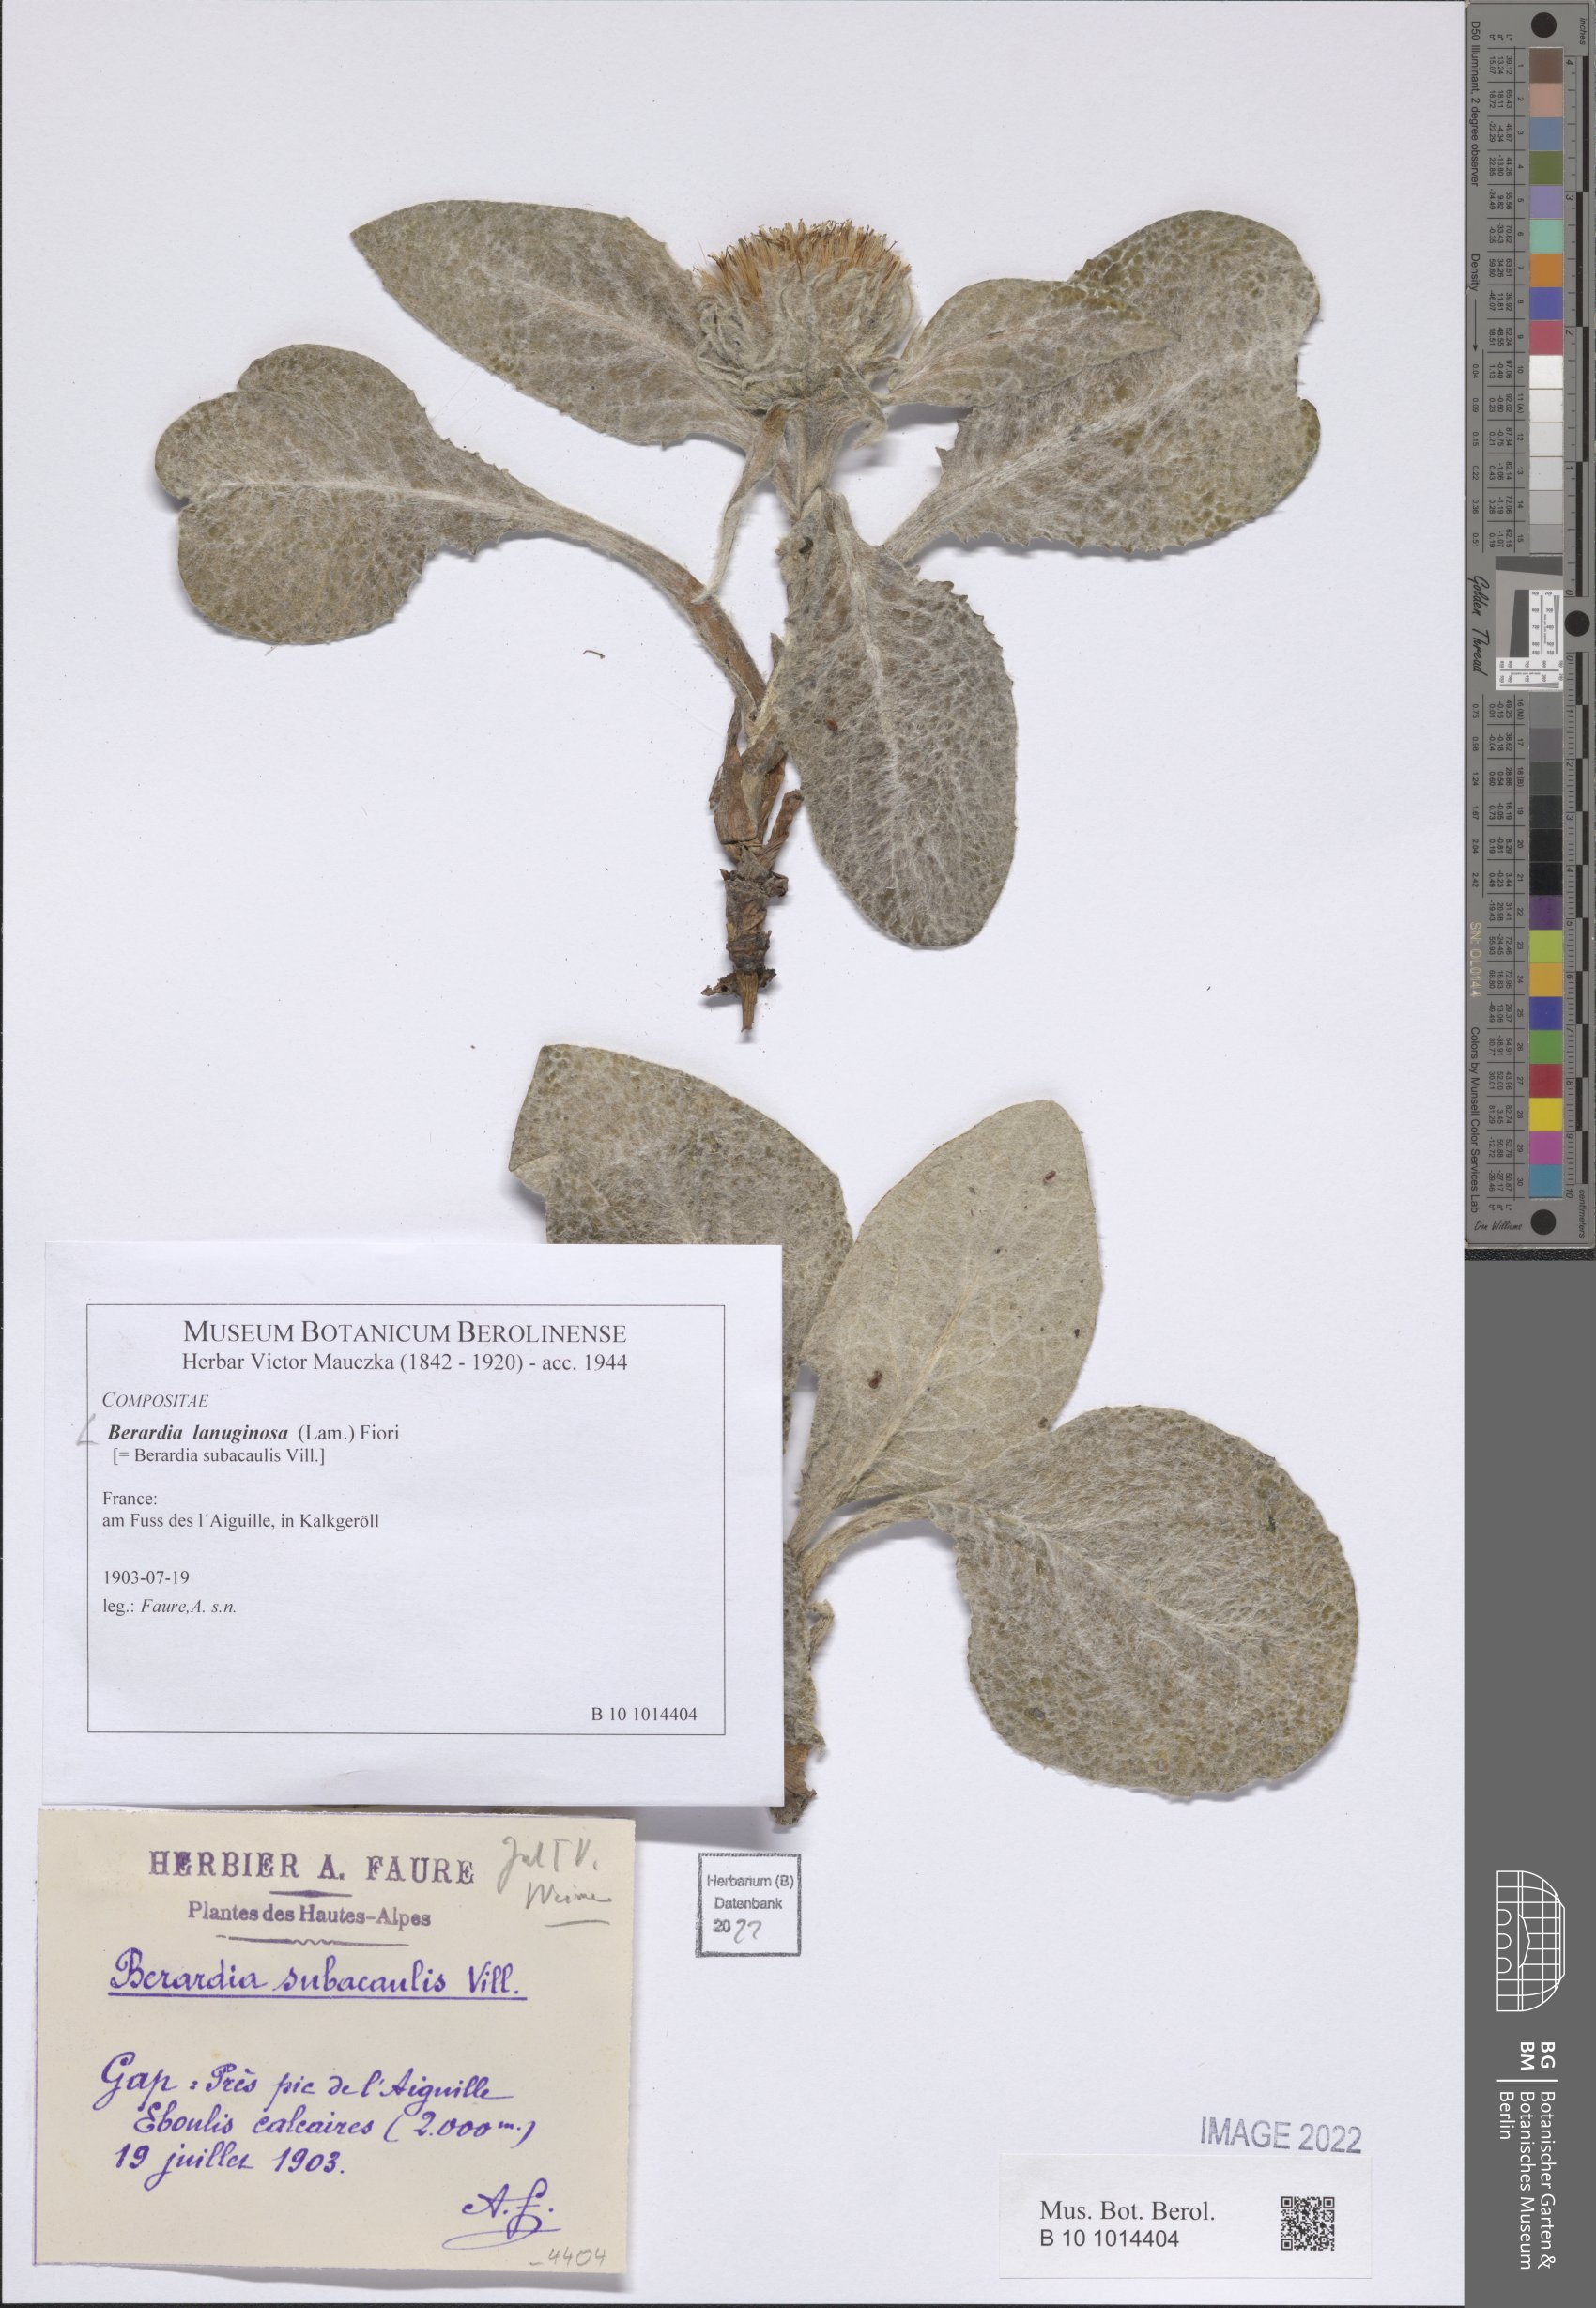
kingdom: Plantae
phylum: Tracheophyta
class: Magnoliopsida
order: Asterales
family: Asteraceae
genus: Berardia
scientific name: Berardia lanuginosa
